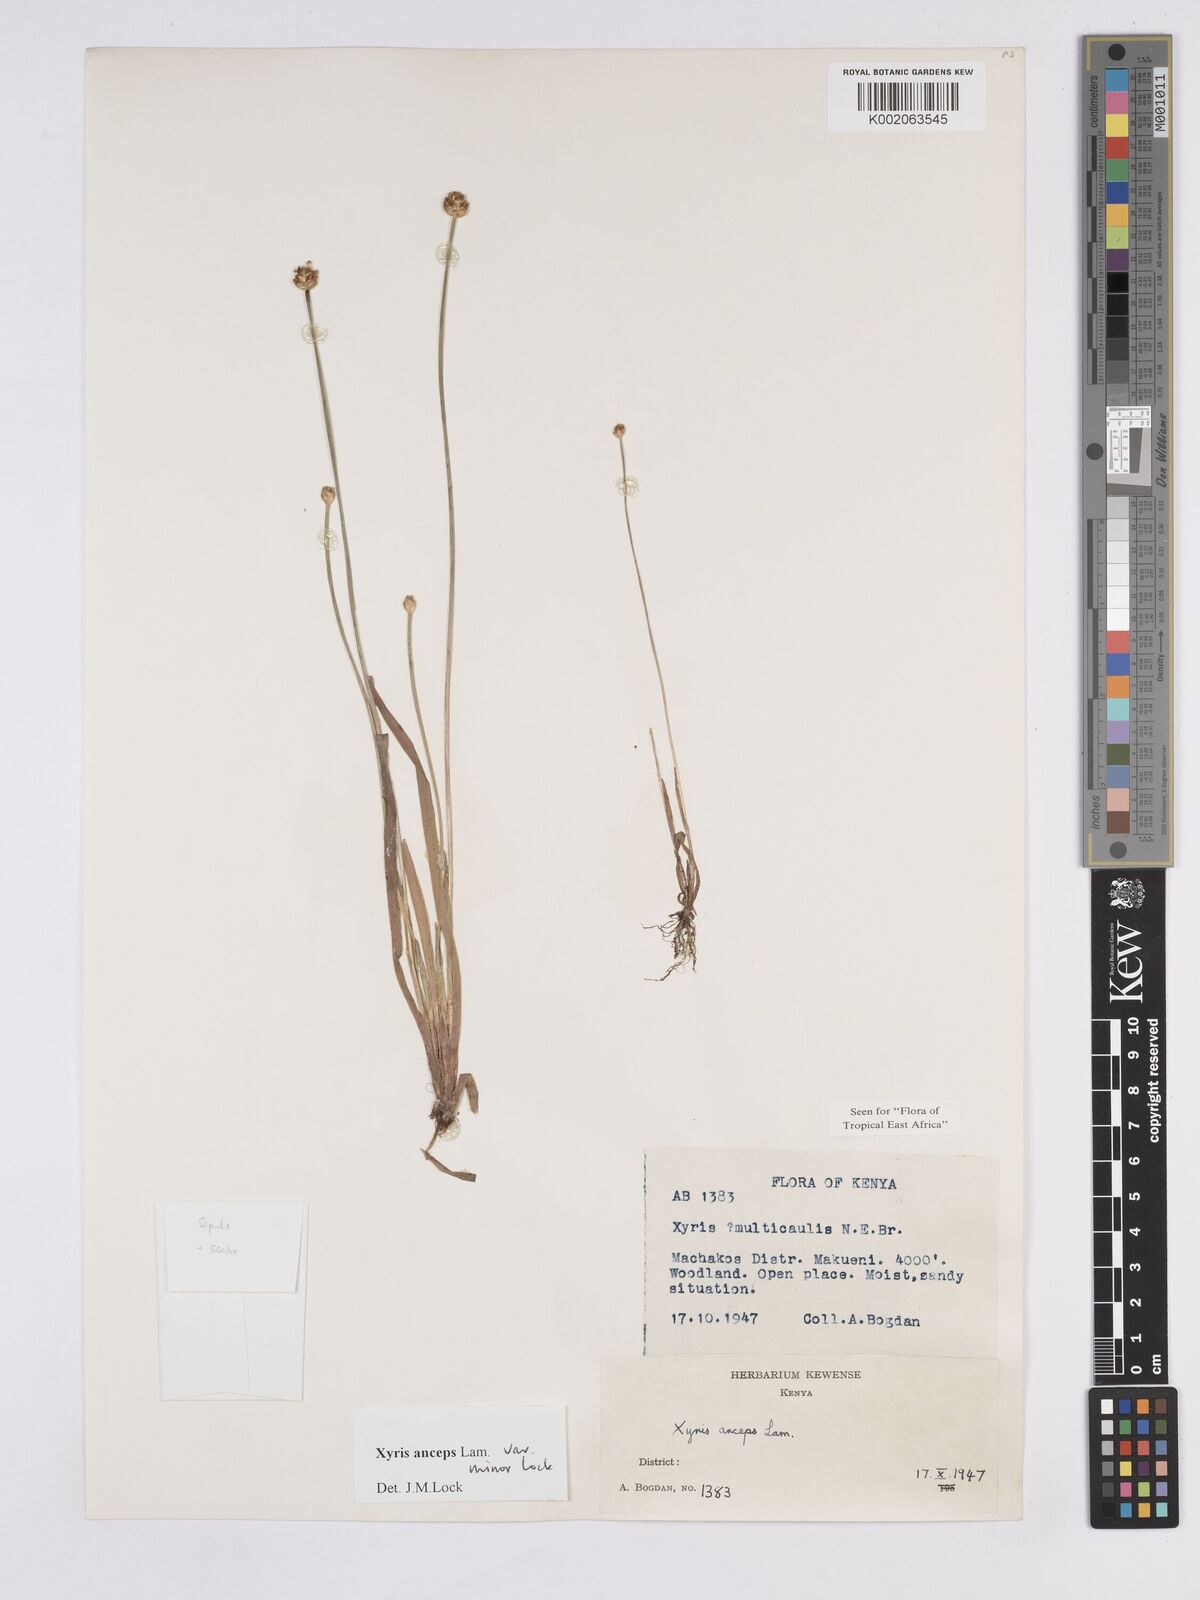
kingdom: Plantae
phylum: Tracheophyta
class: Liliopsida
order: Poales
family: Xyridaceae
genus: Xyris
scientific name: Xyris anceps
